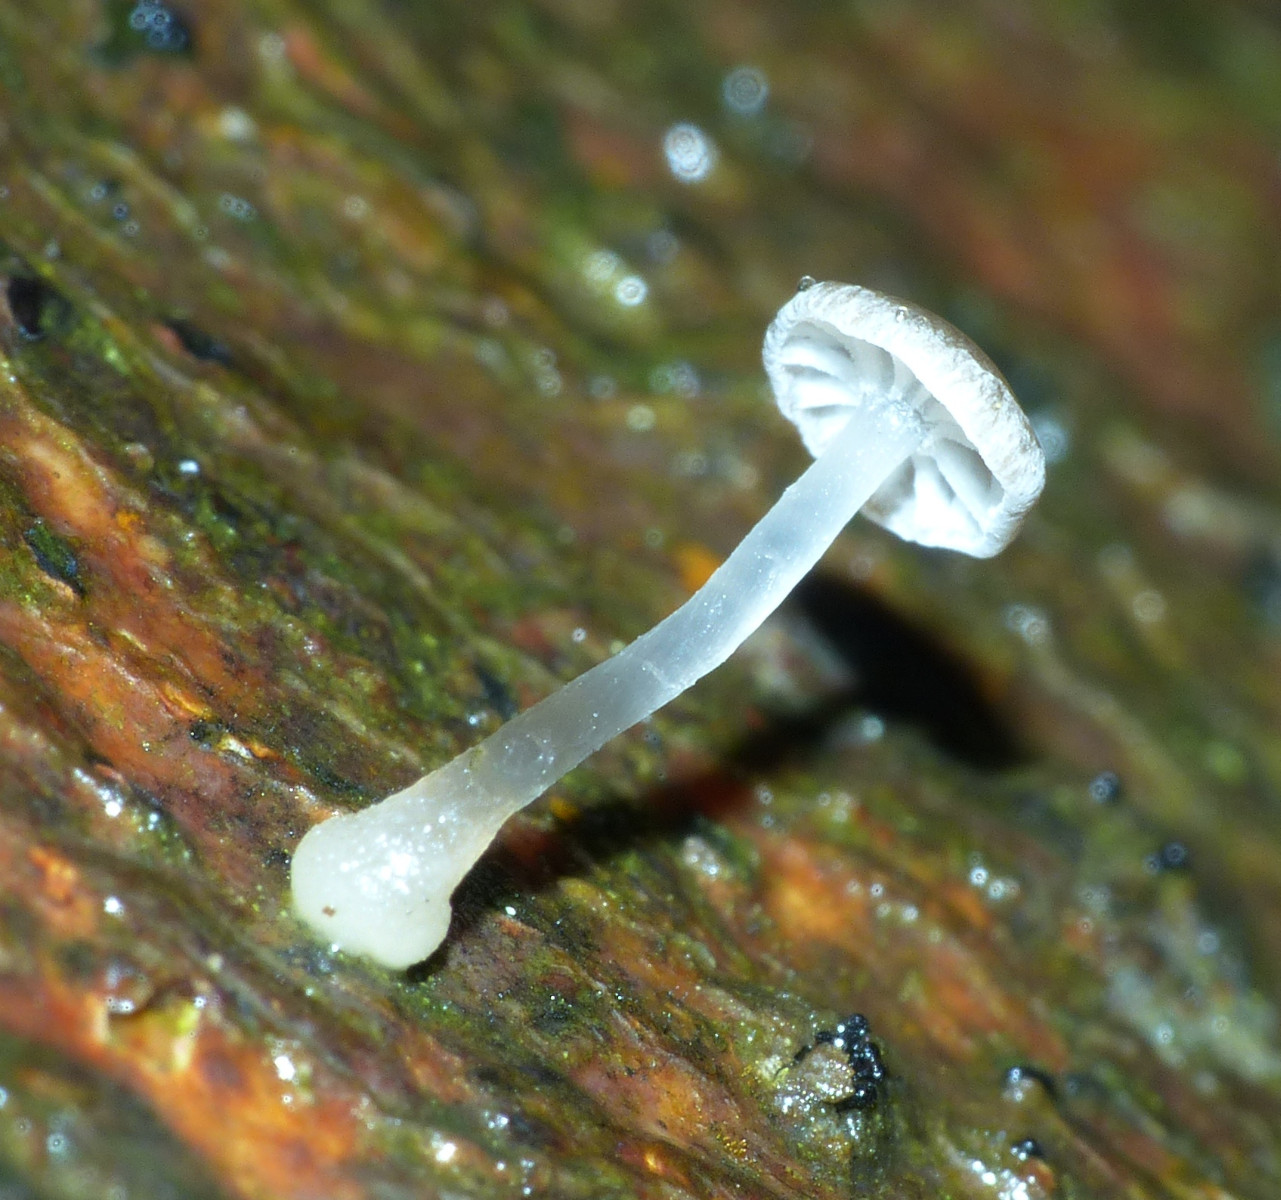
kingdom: Fungi
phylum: Basidiomycota
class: Agaricomycetes
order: Agaricales
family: Porotheleaceae
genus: Phloeomana
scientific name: Phloeomana speirea
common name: kvist-huesvamp
